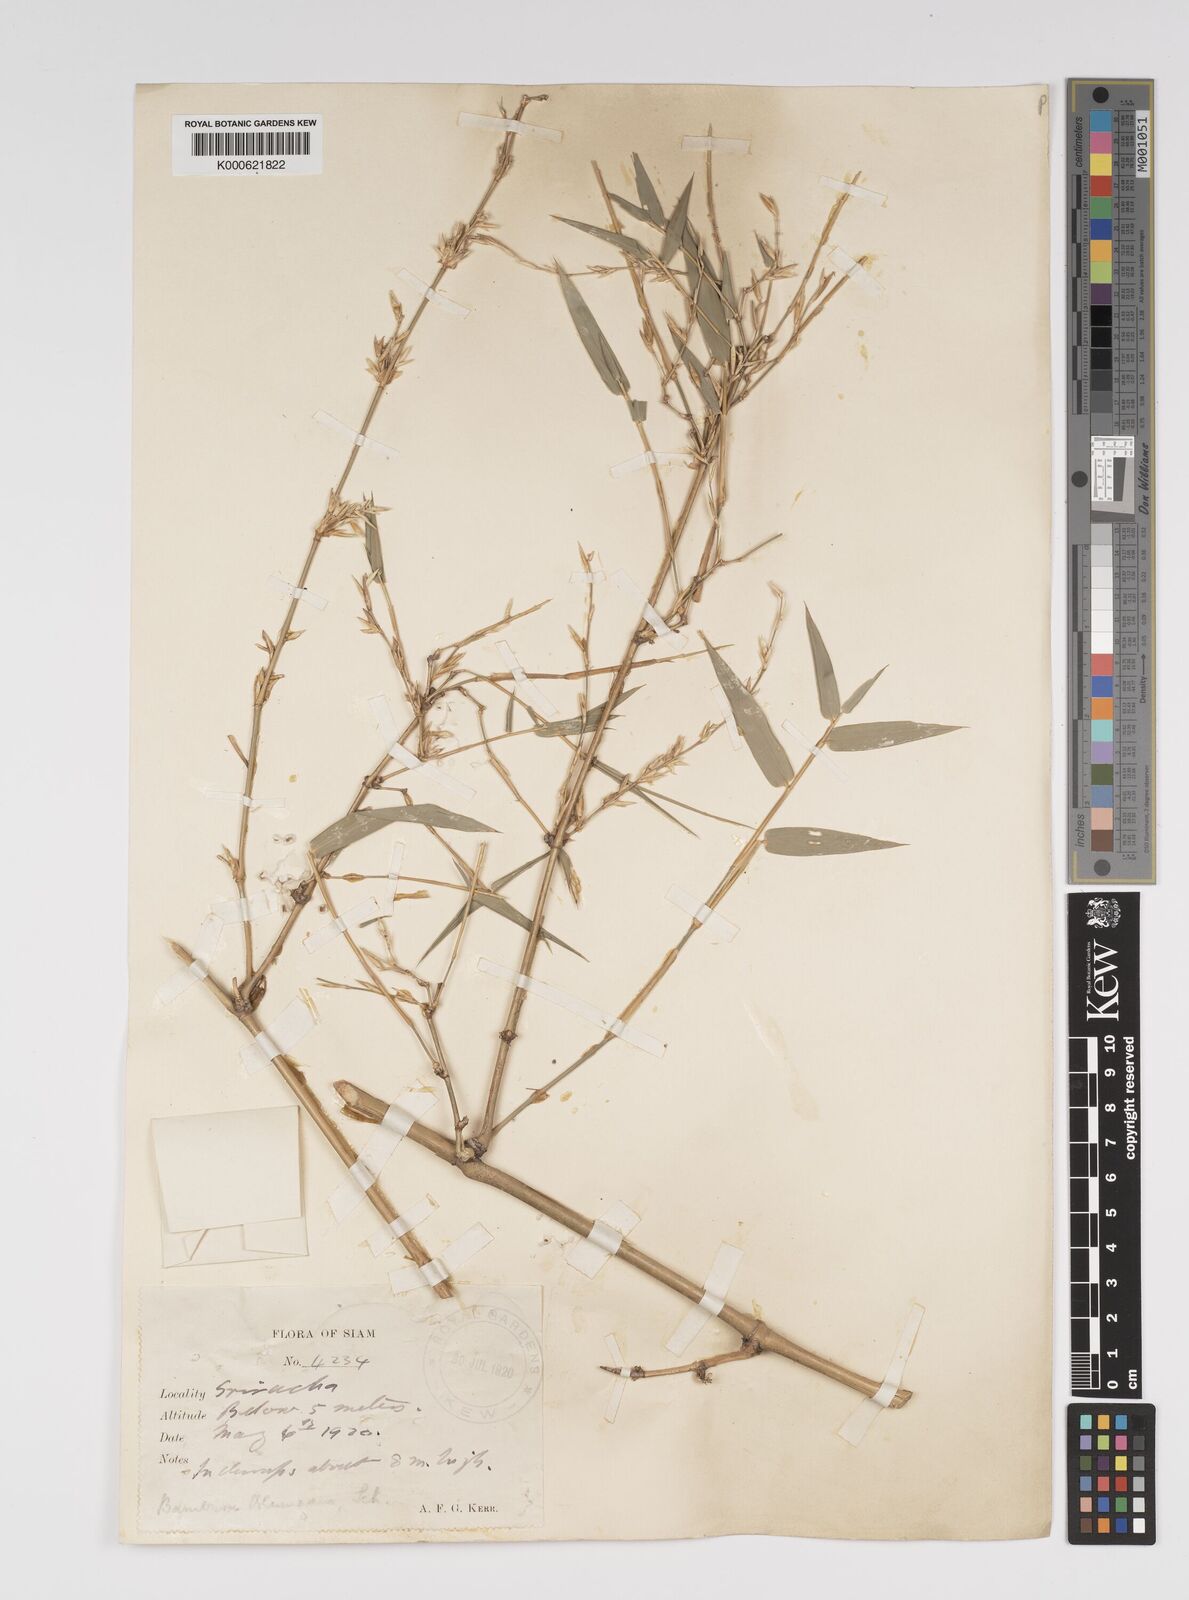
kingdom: Plantae
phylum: Tracheophyta
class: Liliopsida
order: Poales
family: Poaceae
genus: Bambusa
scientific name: Bambusa spinosa
